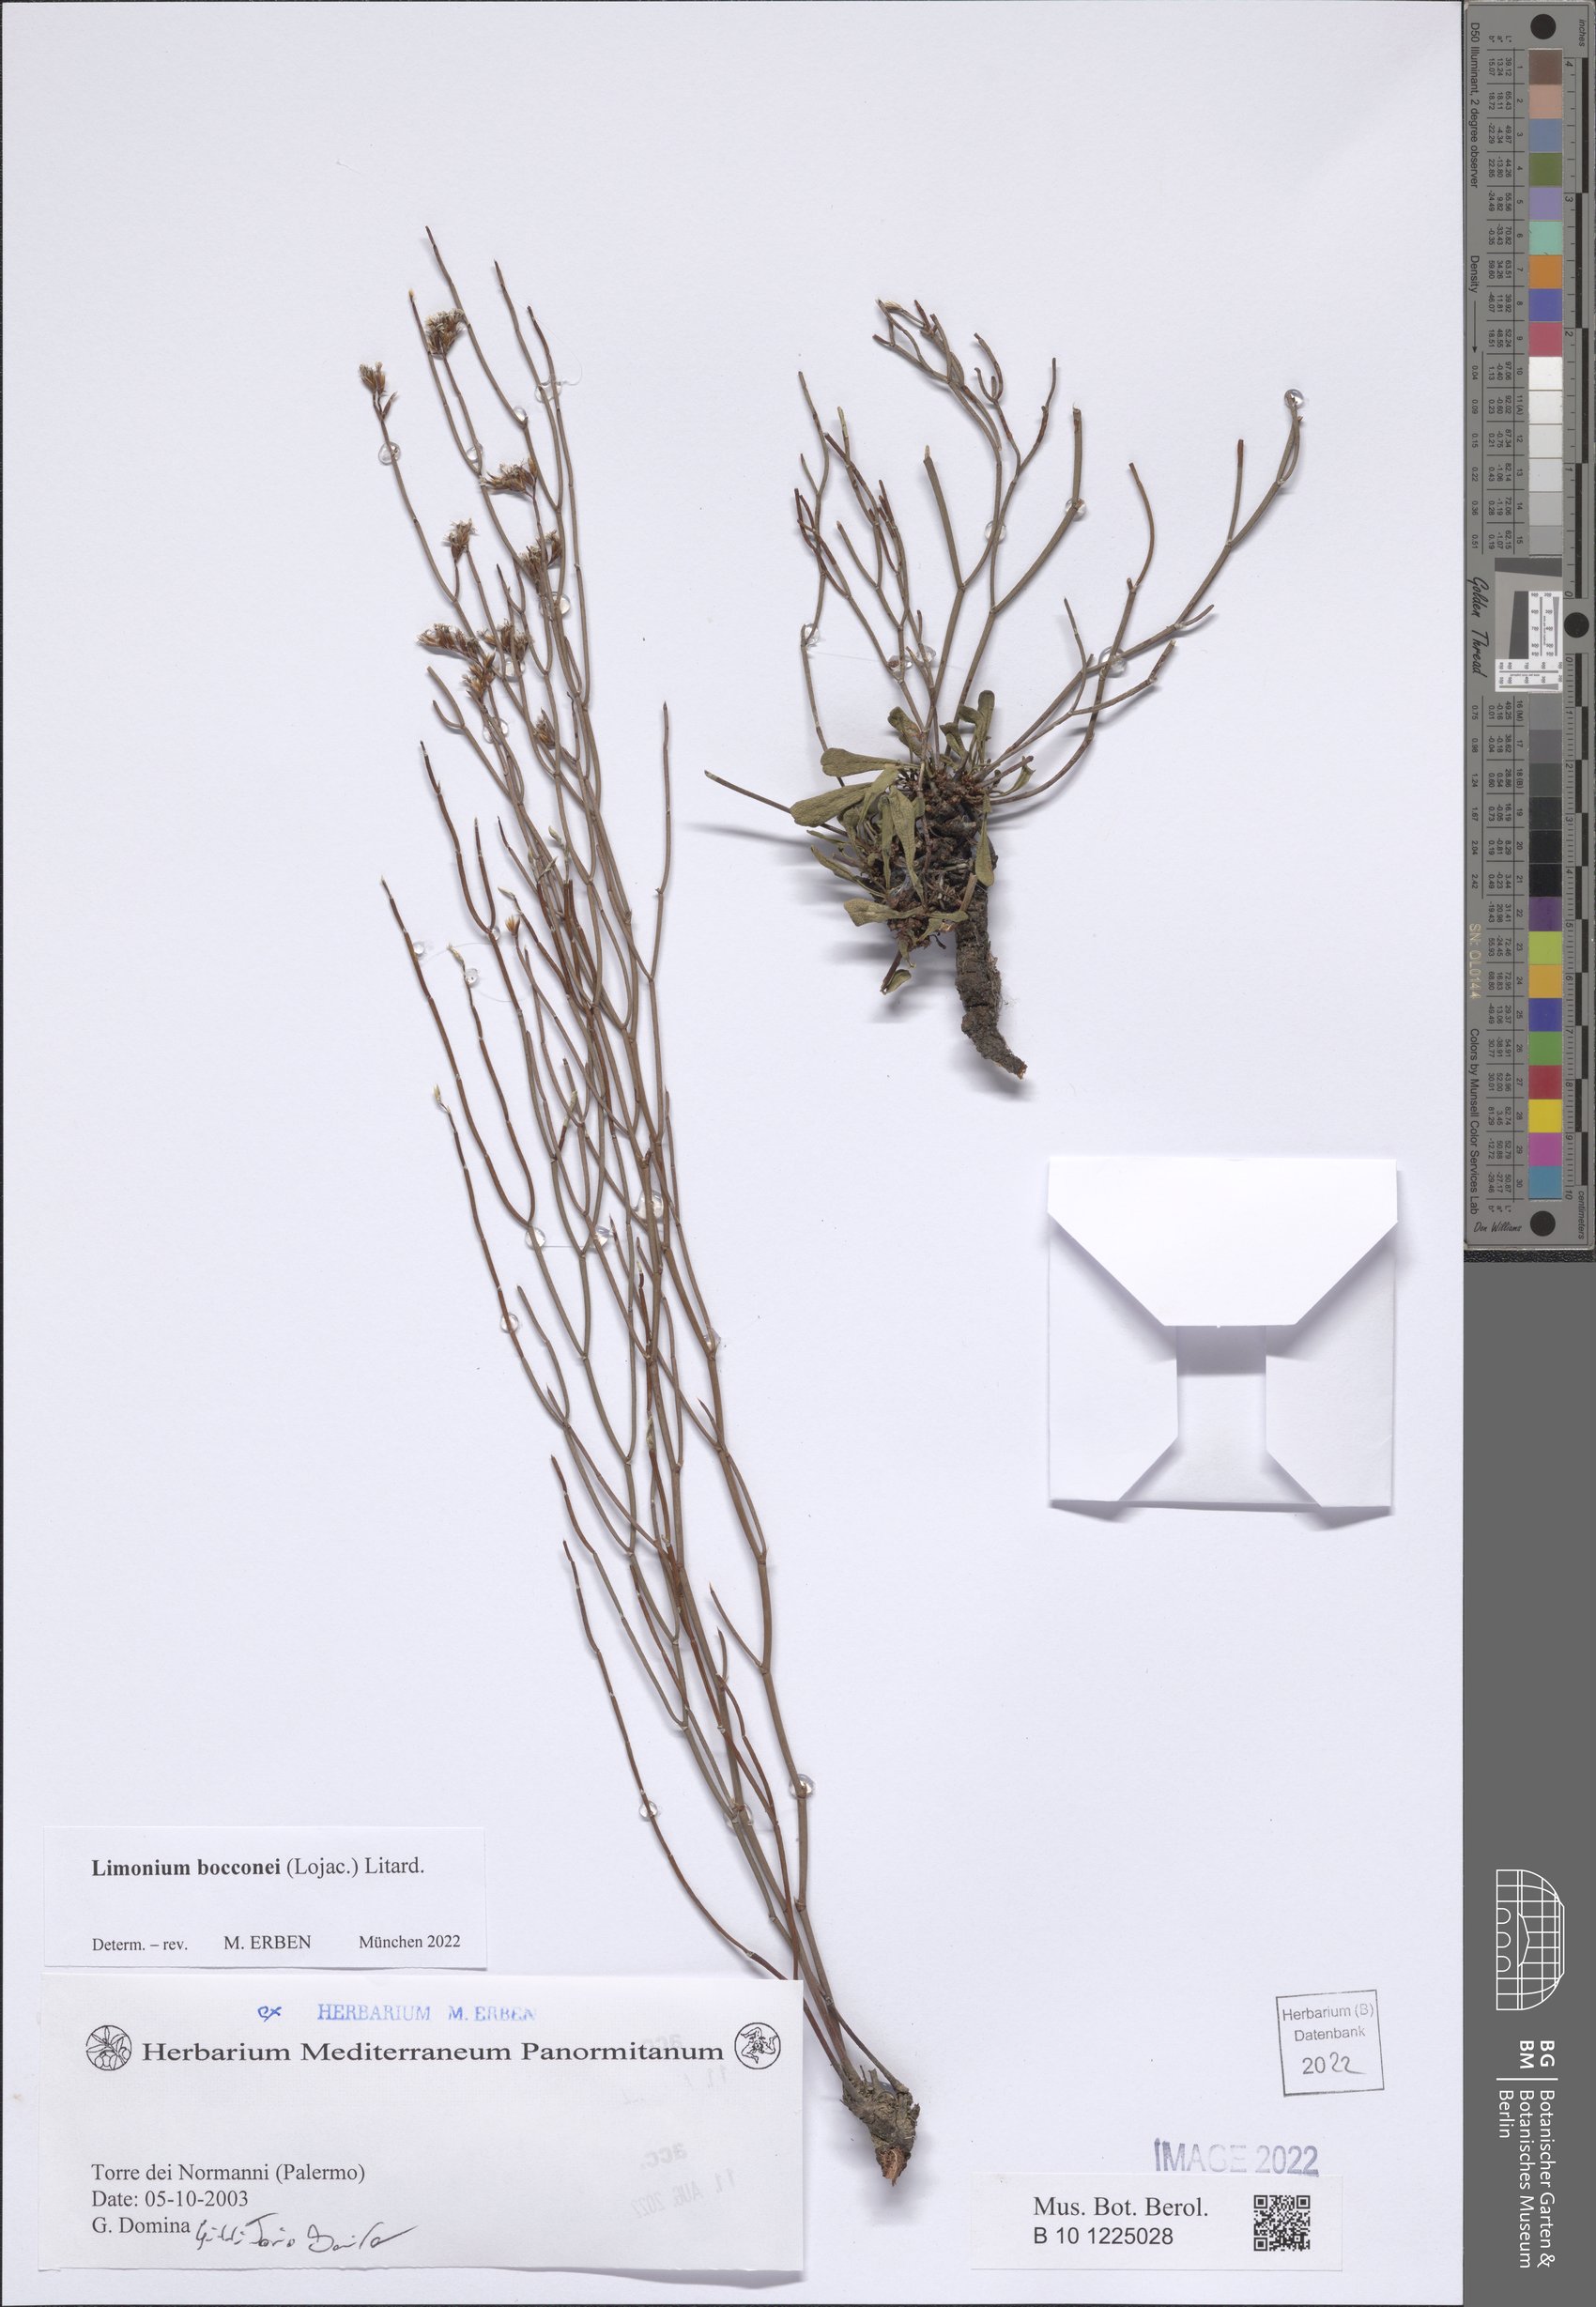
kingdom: Plantae
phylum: Tracheophyta
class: Magnoliopsida
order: Caryophyllales
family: Plumbaginaceae
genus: Limonium
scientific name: Limonium bocconei
